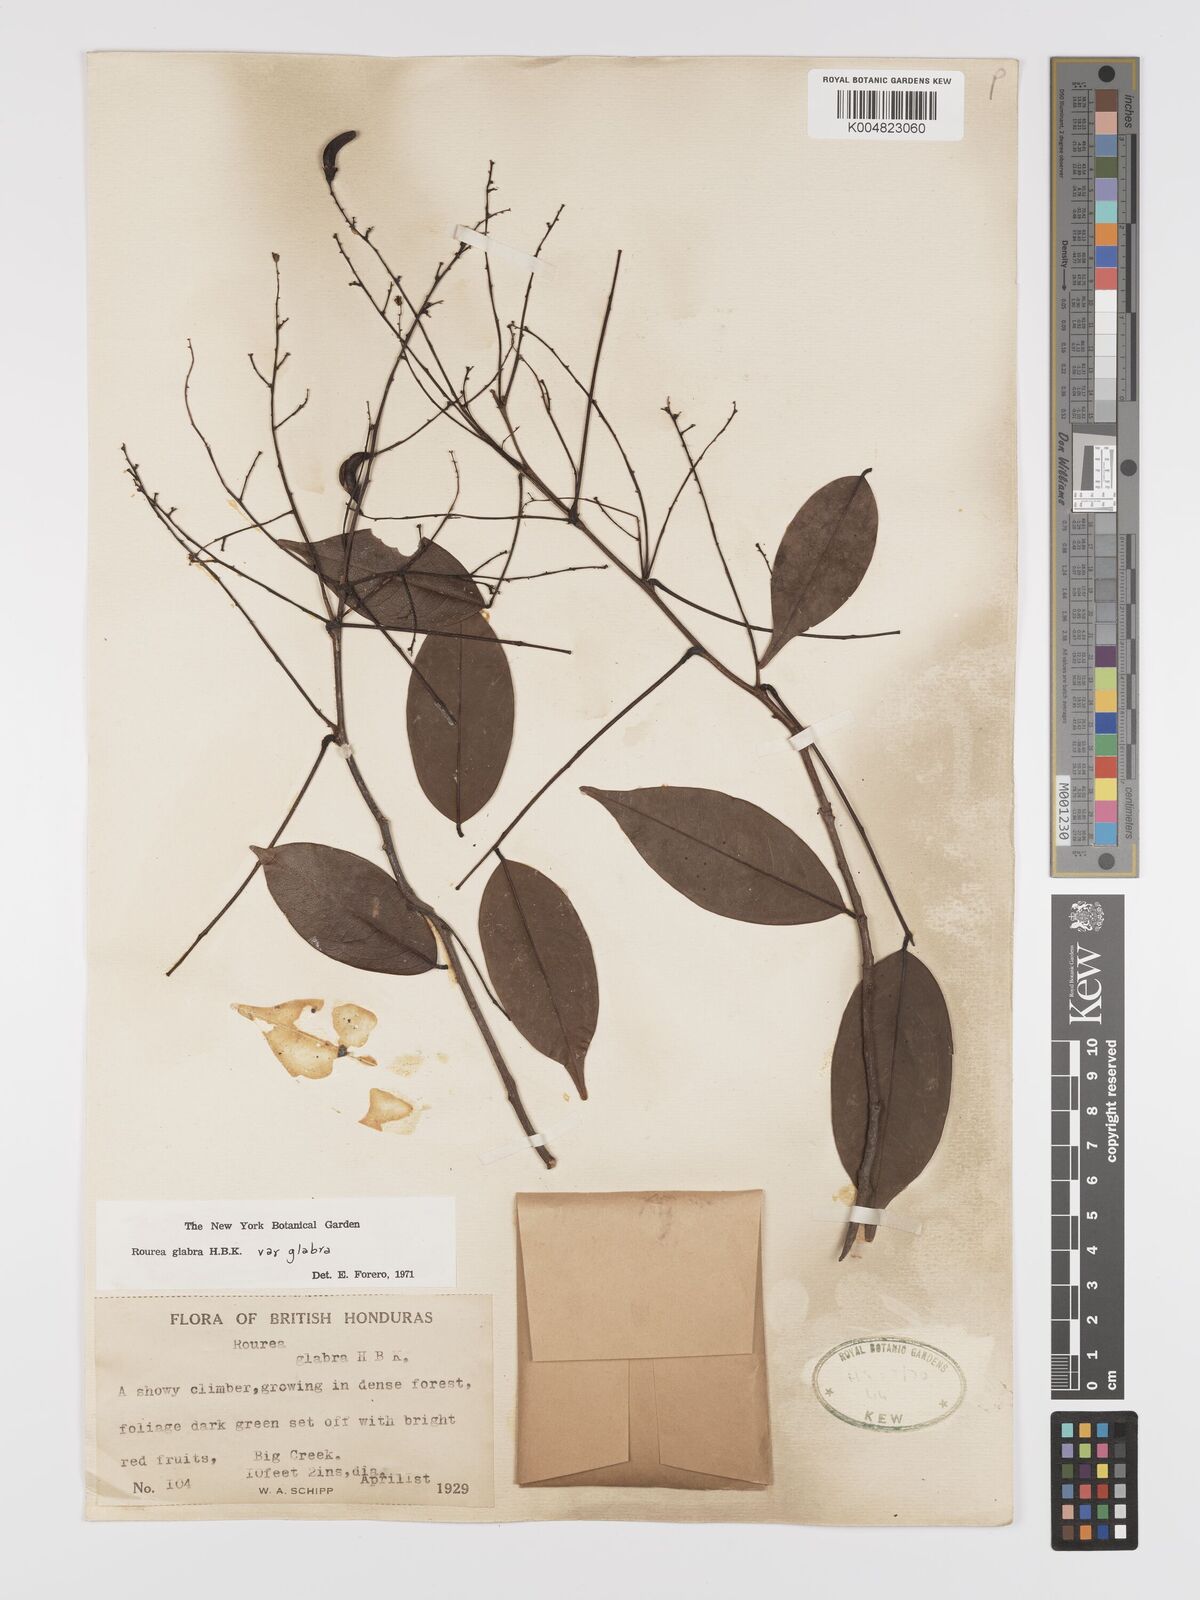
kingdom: Plantae
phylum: Tracheophyta
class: Magnoliopsida
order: Oxalidales
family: Connaraceae
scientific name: Connaraceae
